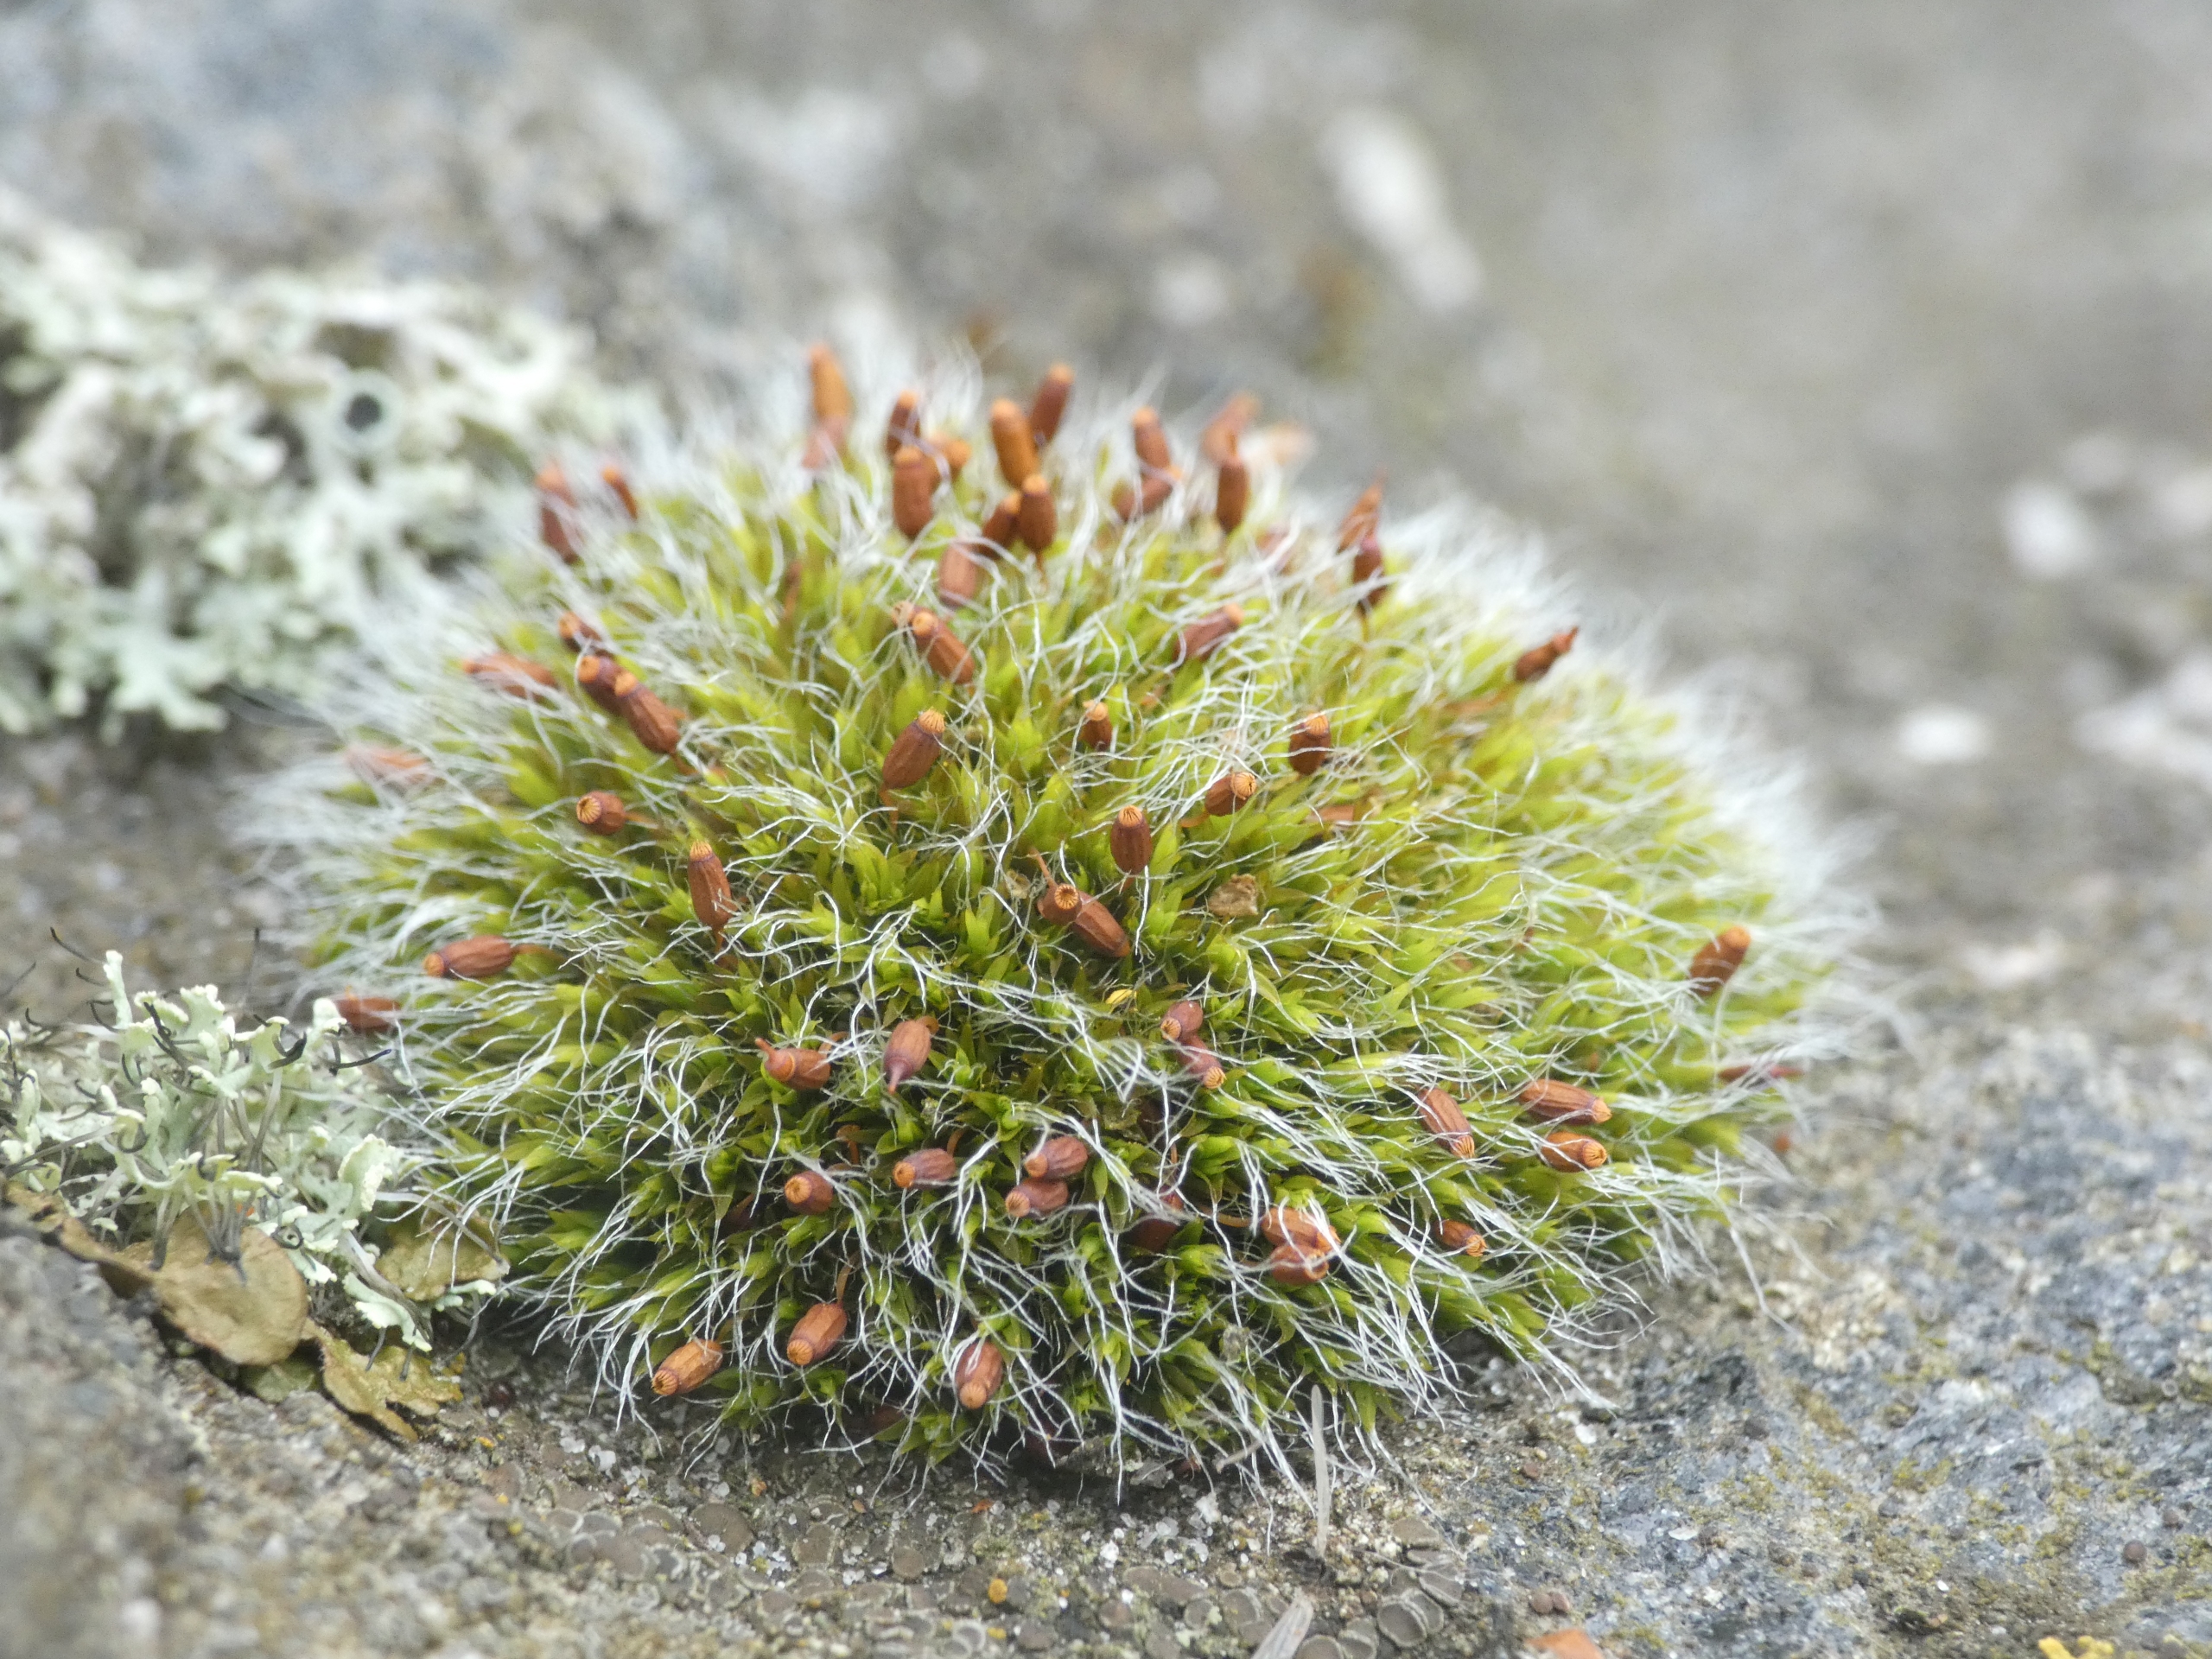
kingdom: Plantae
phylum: Bryophyta
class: Bryopsida
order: Grimmiales
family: Grimmiaceae
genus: Grimmia
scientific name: Grimmia pulvinata
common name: Pude-gråmos
